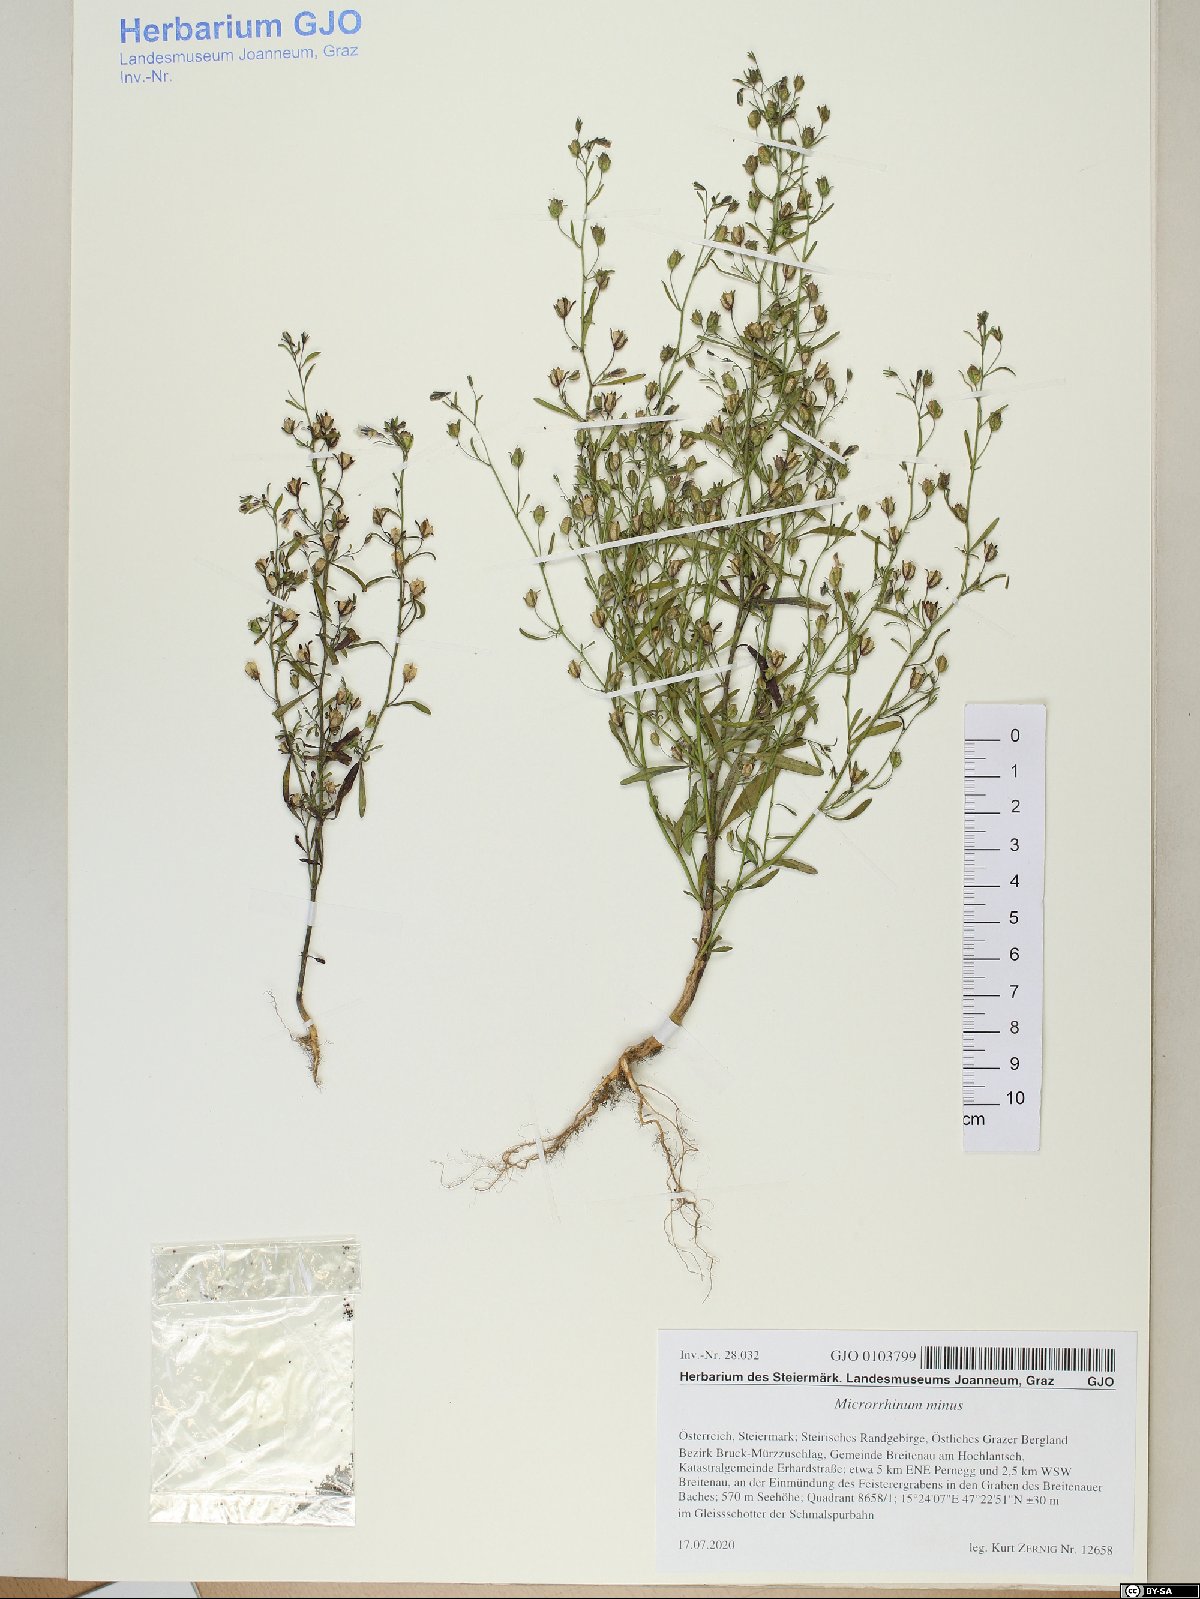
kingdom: Plantae
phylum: Tracheophyta
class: Magnoliopsida
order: Lamiales
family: Plantaginaceae
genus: Chaenorhinum
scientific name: Chaenorhinum minus
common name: Dwarf snapdragon
